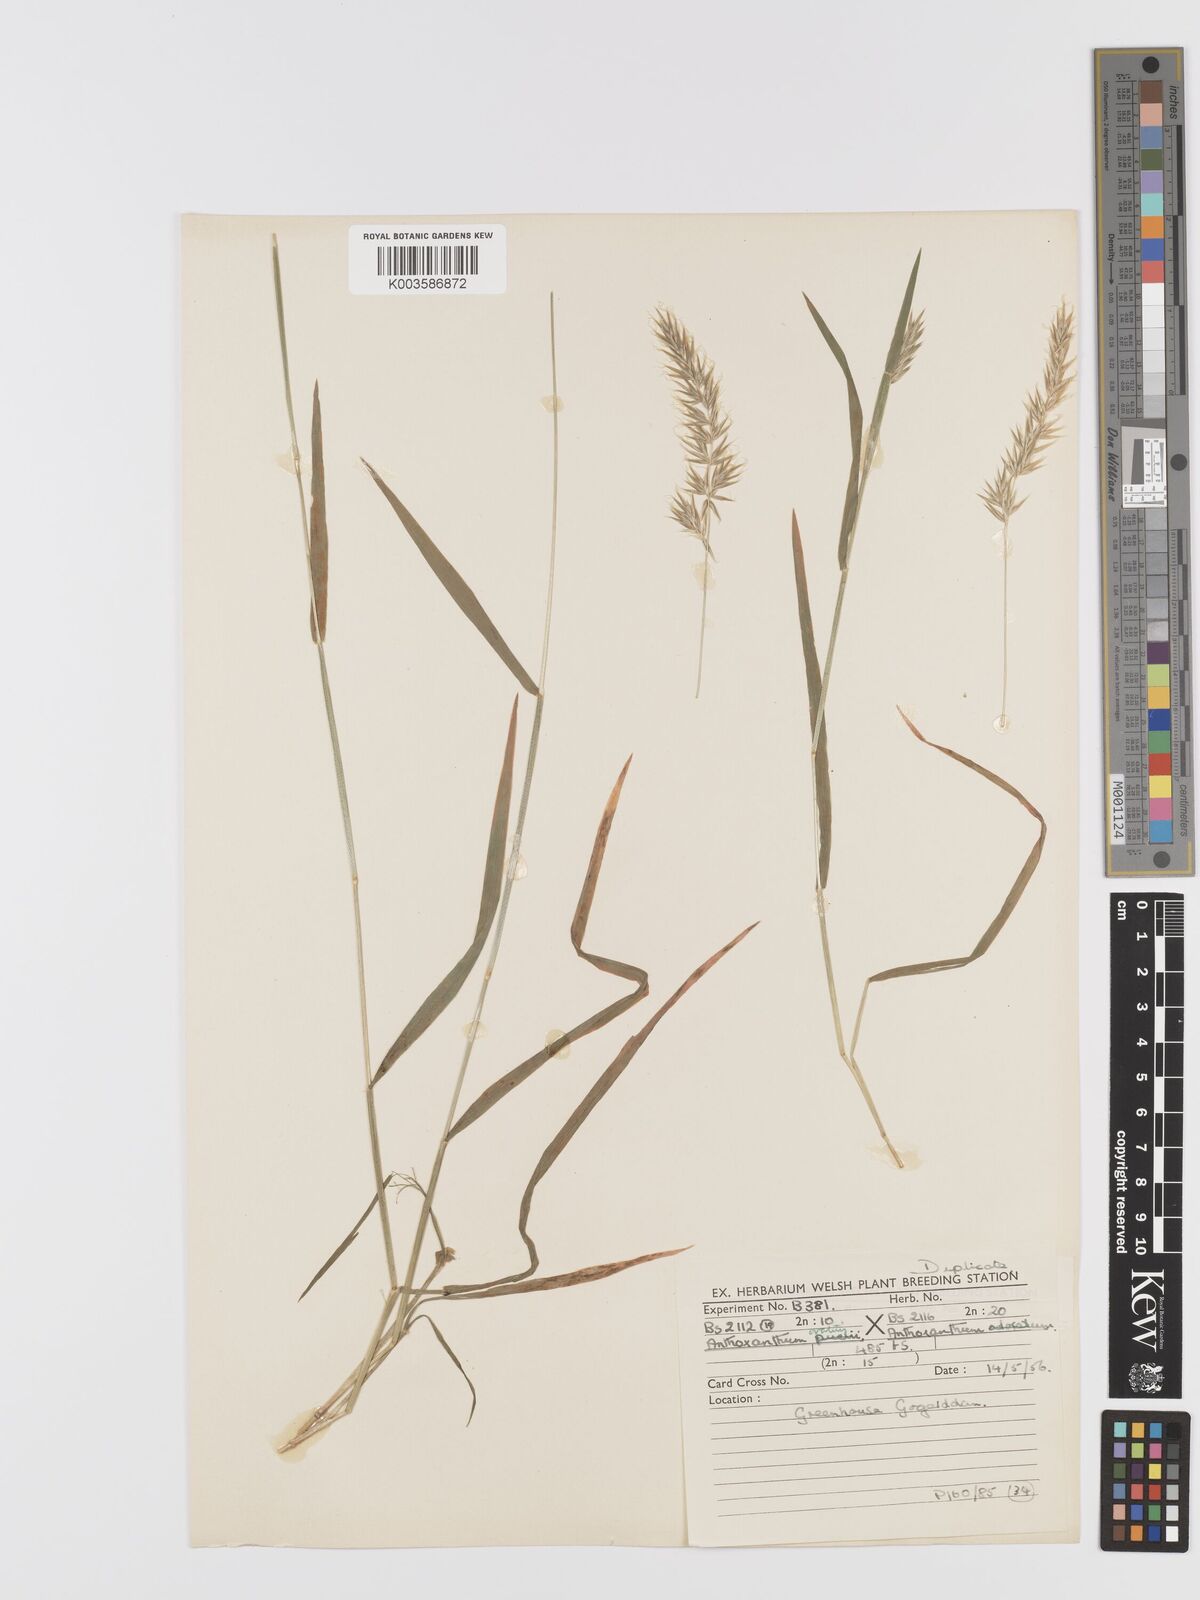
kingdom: Plantae
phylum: Tracheophyta
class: Liliopsida
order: Poales
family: Poaceae
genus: Anthoxanthum
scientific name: Anthoxanthum ovatum
